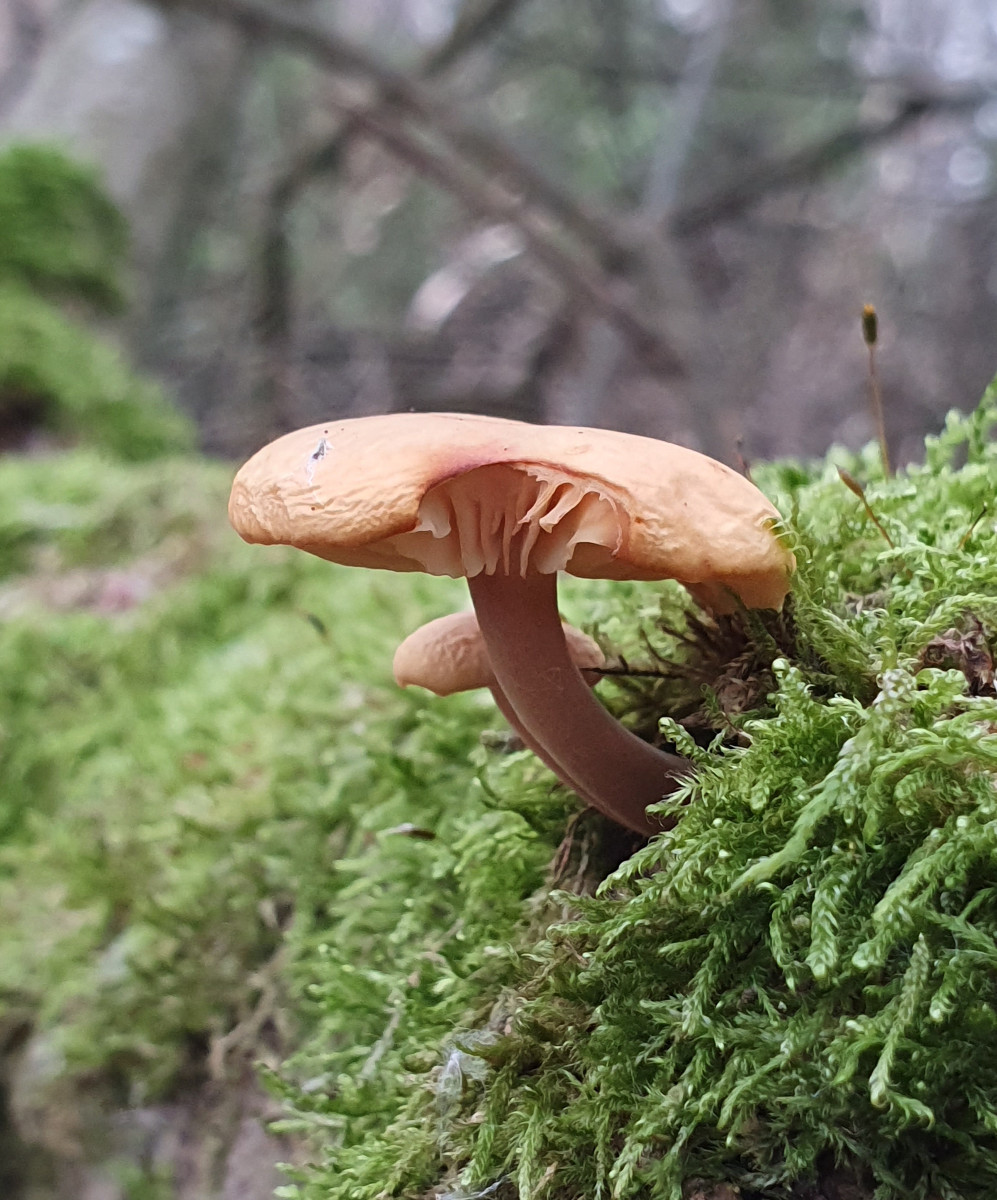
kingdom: Fungi
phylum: Basidiomycota
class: Agaricomycetes
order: Agaricales
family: Physalacriaceae
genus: Flammulina
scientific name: Flammulina
